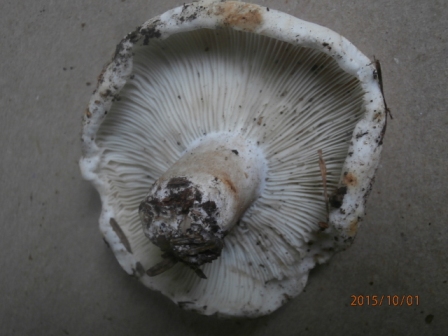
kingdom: Fungi
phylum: Basidiomycota
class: Agaricomycetes
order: Russulales
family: Russulaceae
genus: Russula
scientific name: Russula chloroides
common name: grønhalset tragt-skørhat
